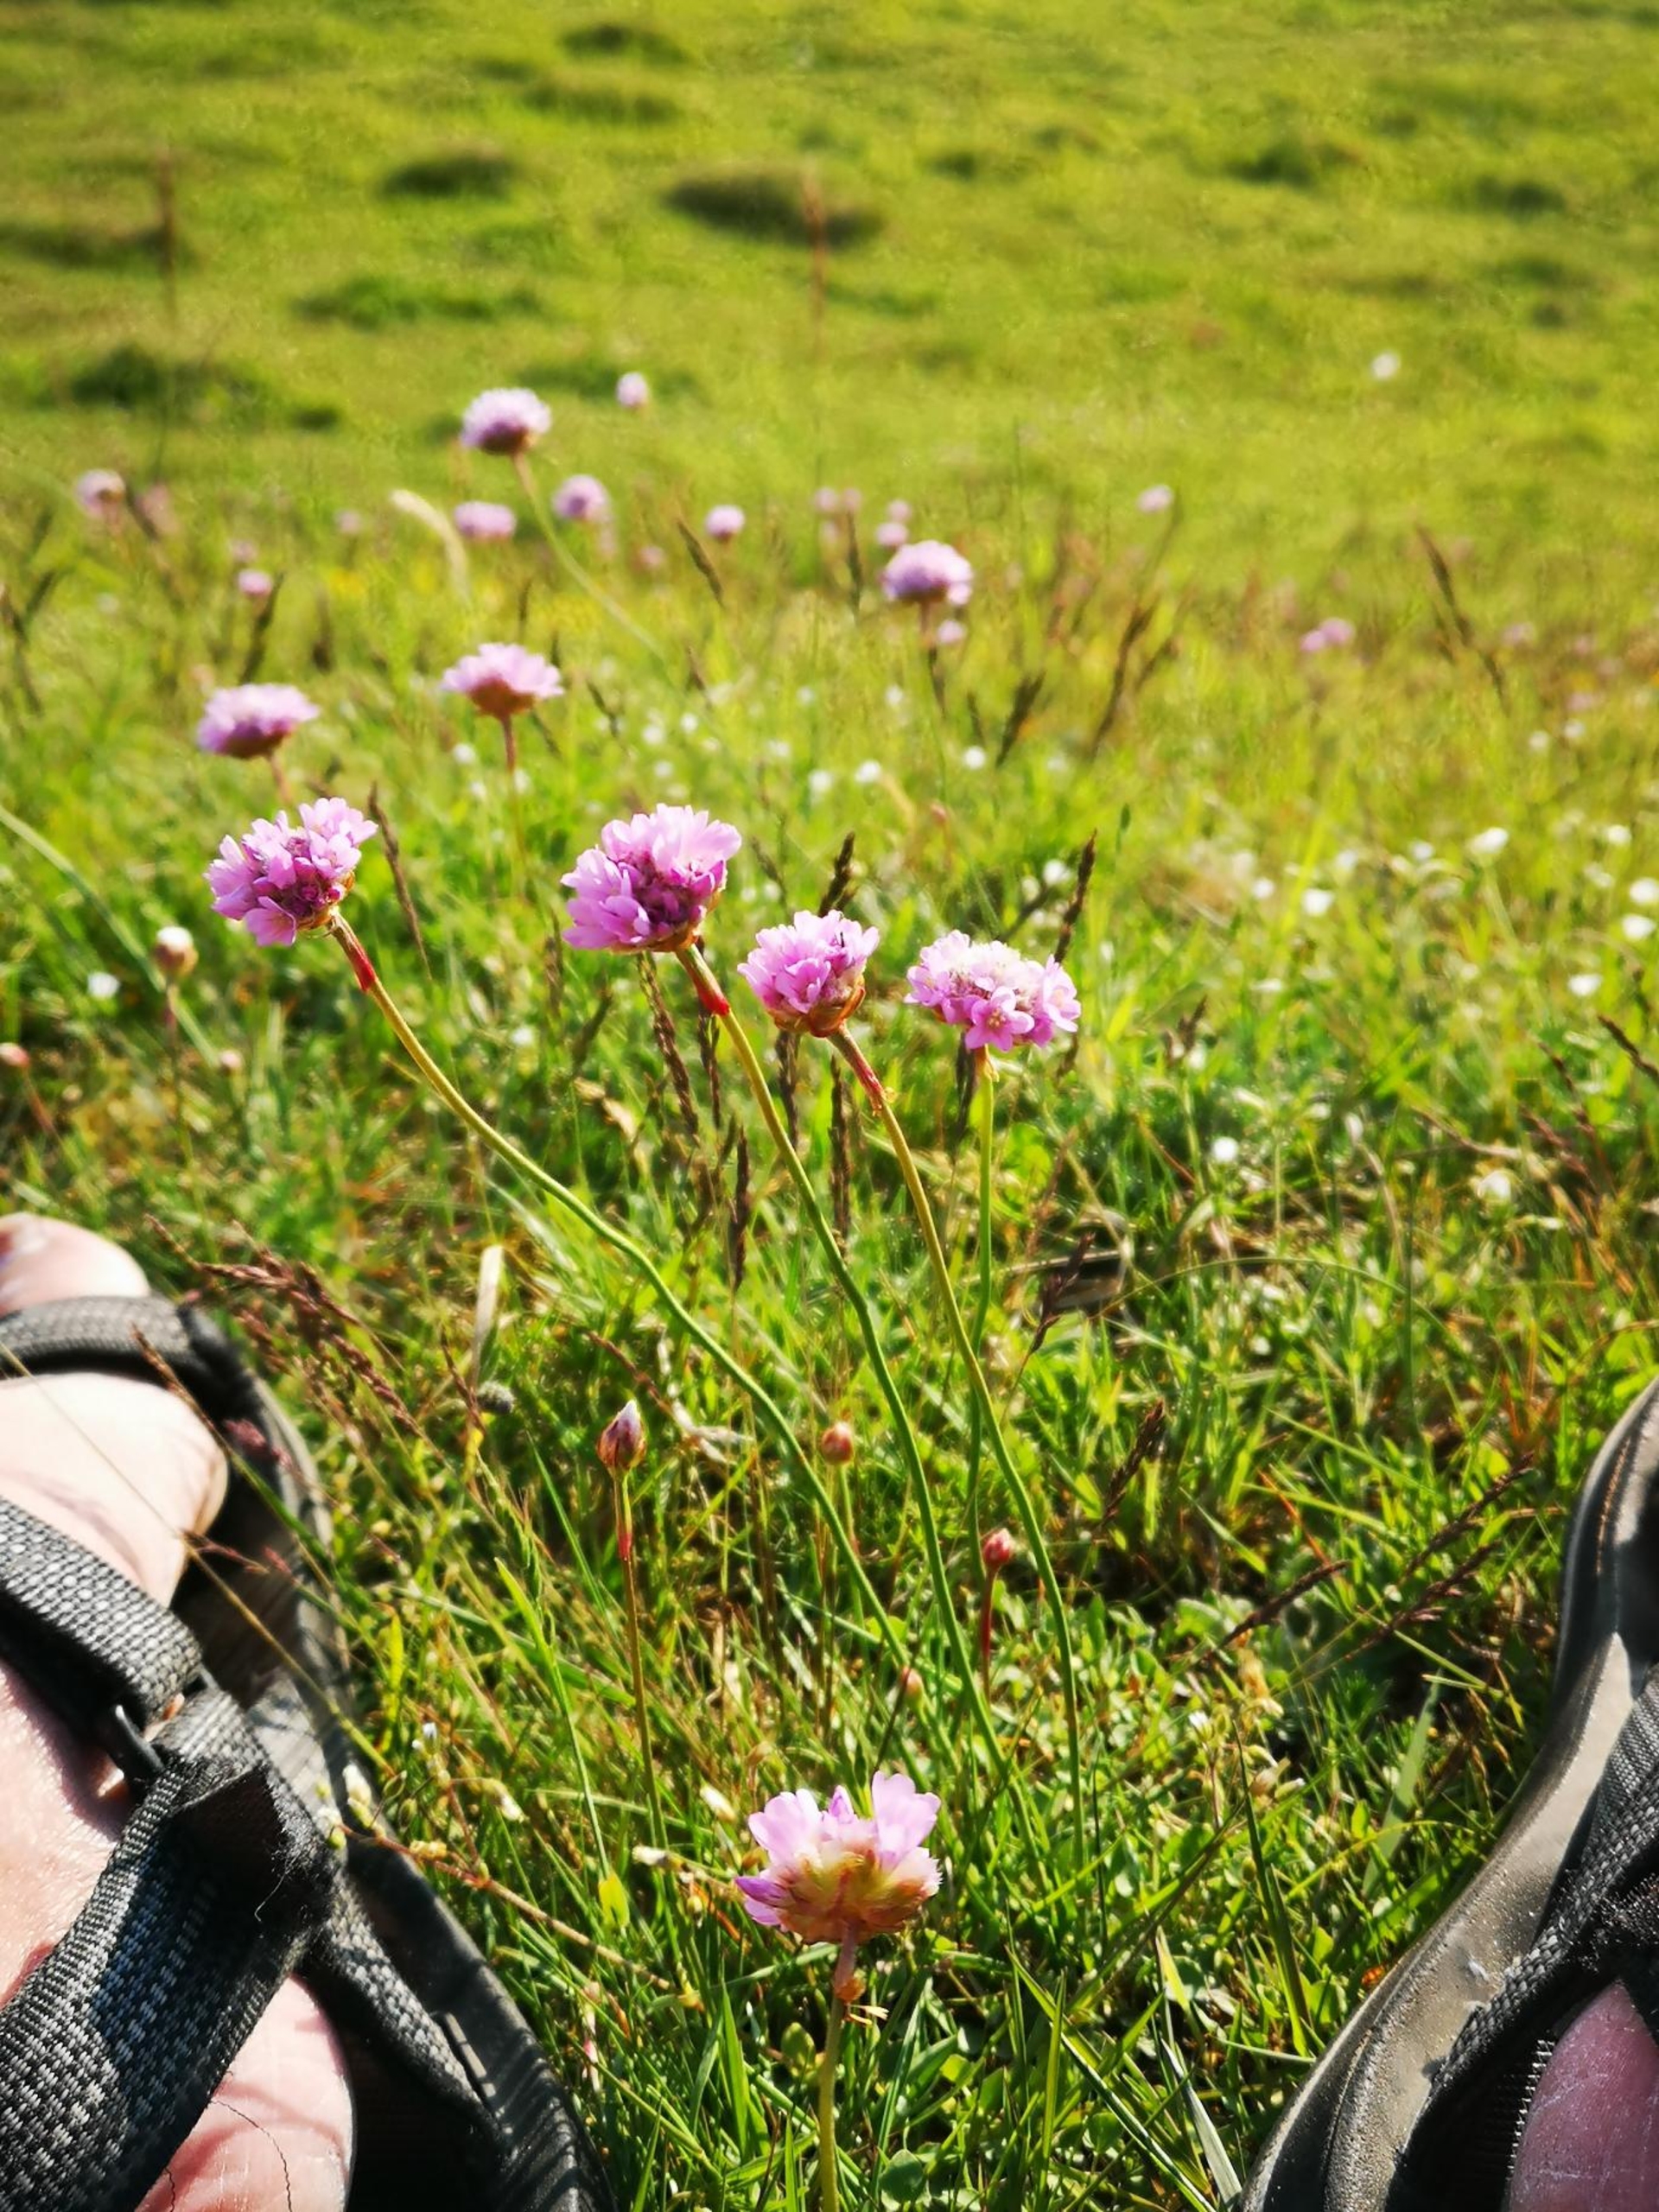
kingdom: Plantae
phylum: Tracheophyta
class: Magnoliopsida
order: Caryophyllales
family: Plumbaginaceae
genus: Armeria
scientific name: Armeria maritima
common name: Engelskgræs
